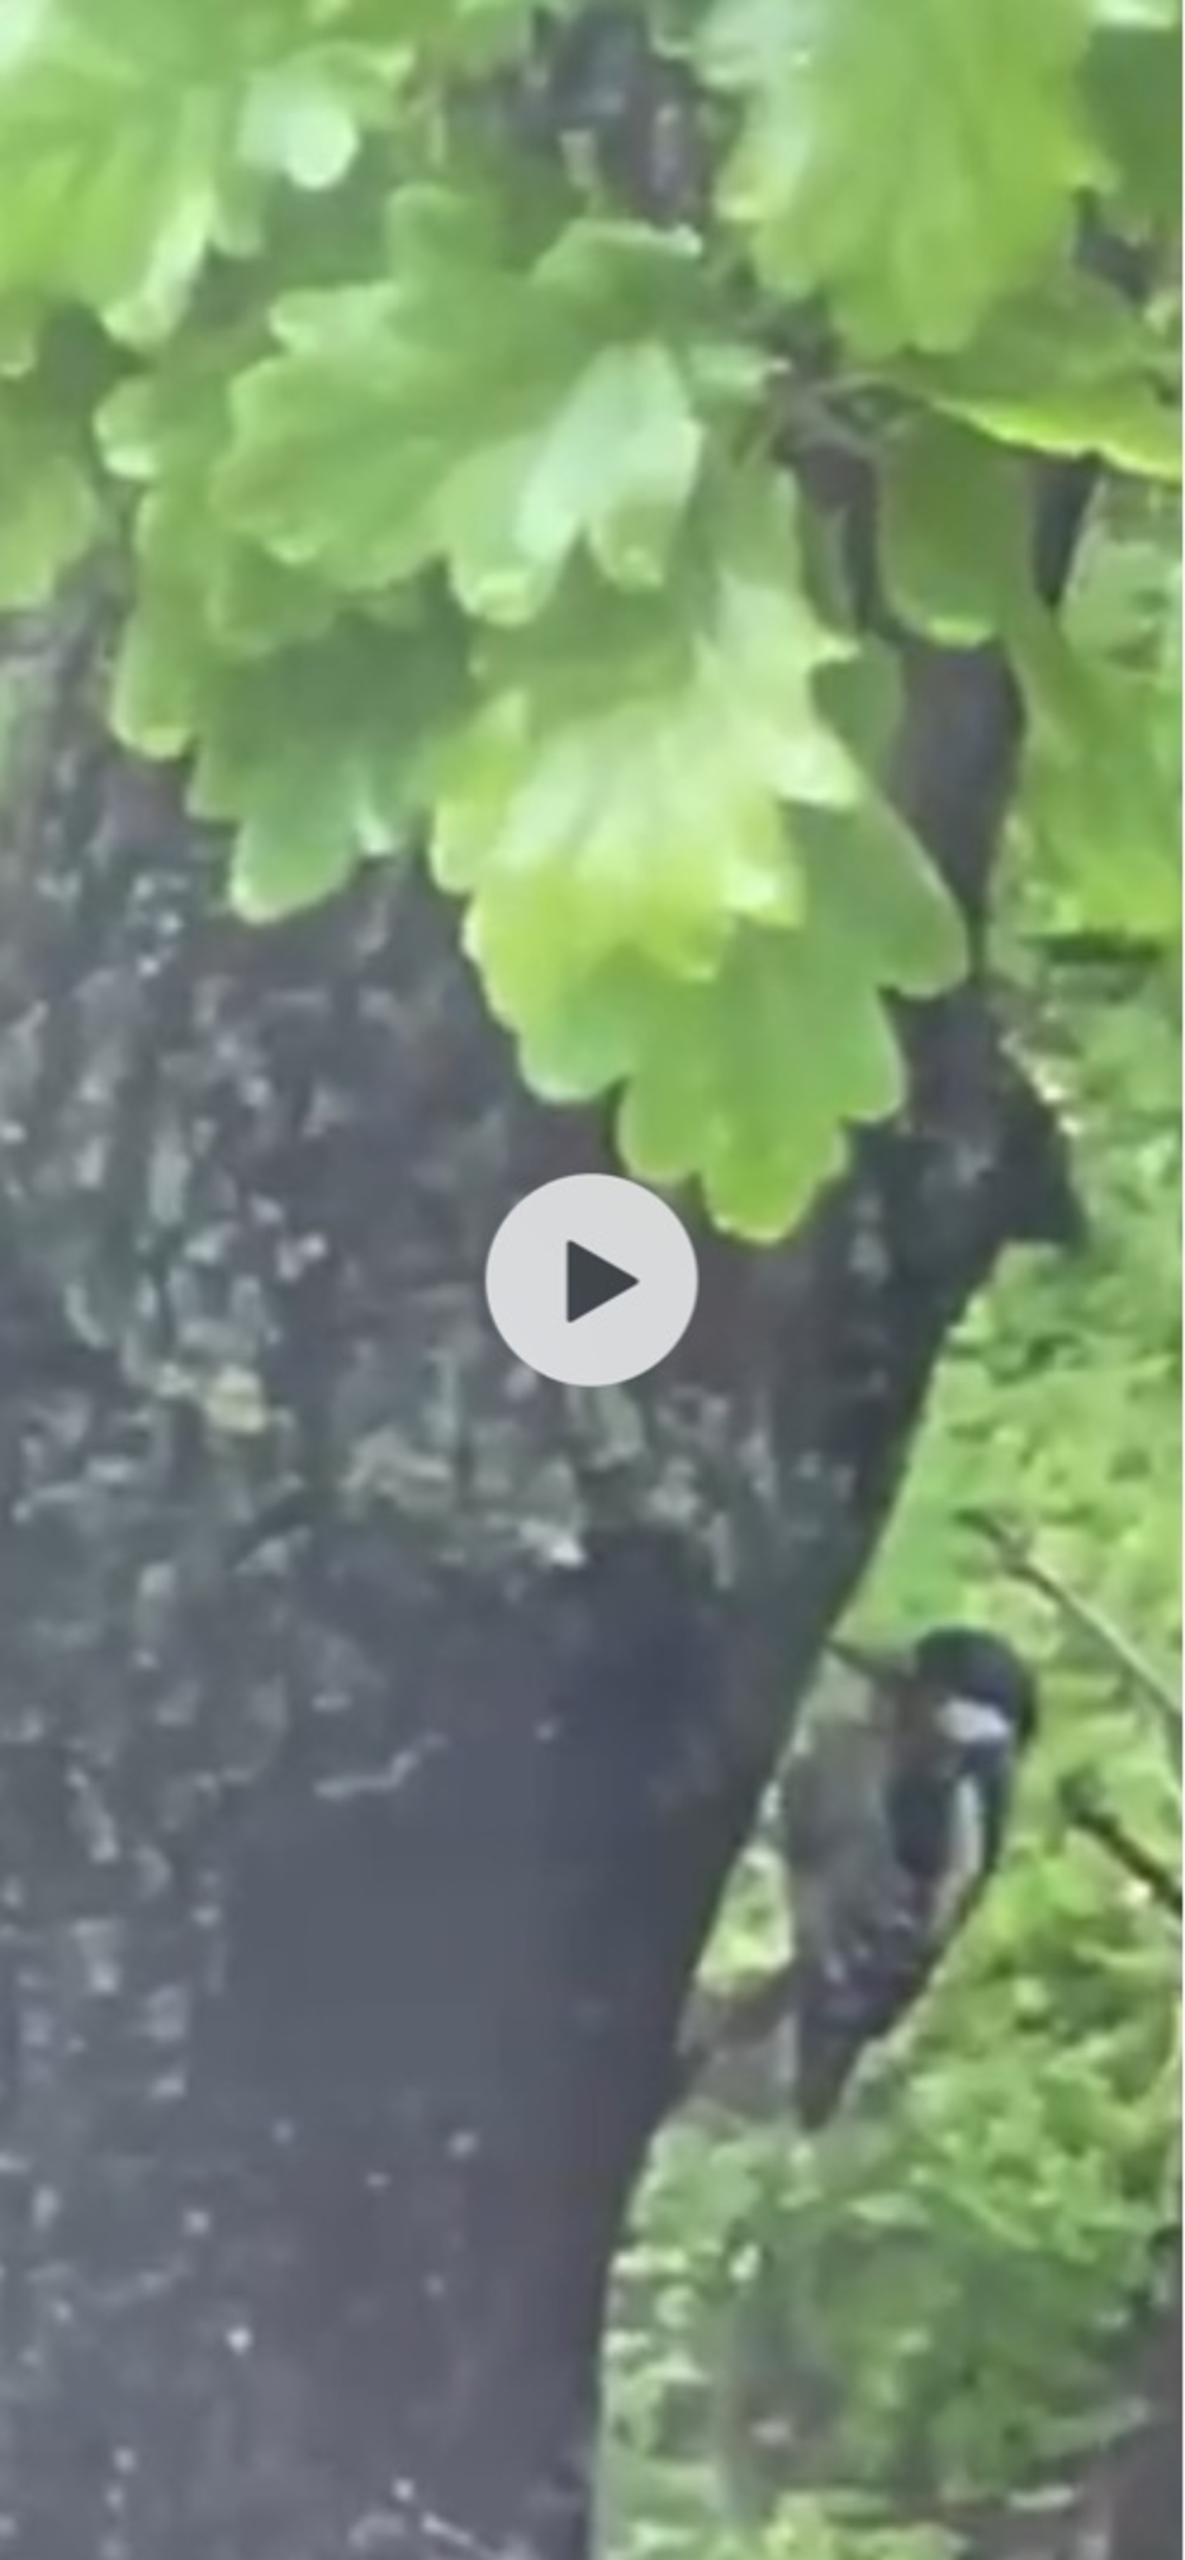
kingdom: Animalia
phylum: Chordata
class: Aves
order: Piciformes
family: Picidae
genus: Dendrocopos
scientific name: Dendrocopos major
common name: Stor flagspætte
